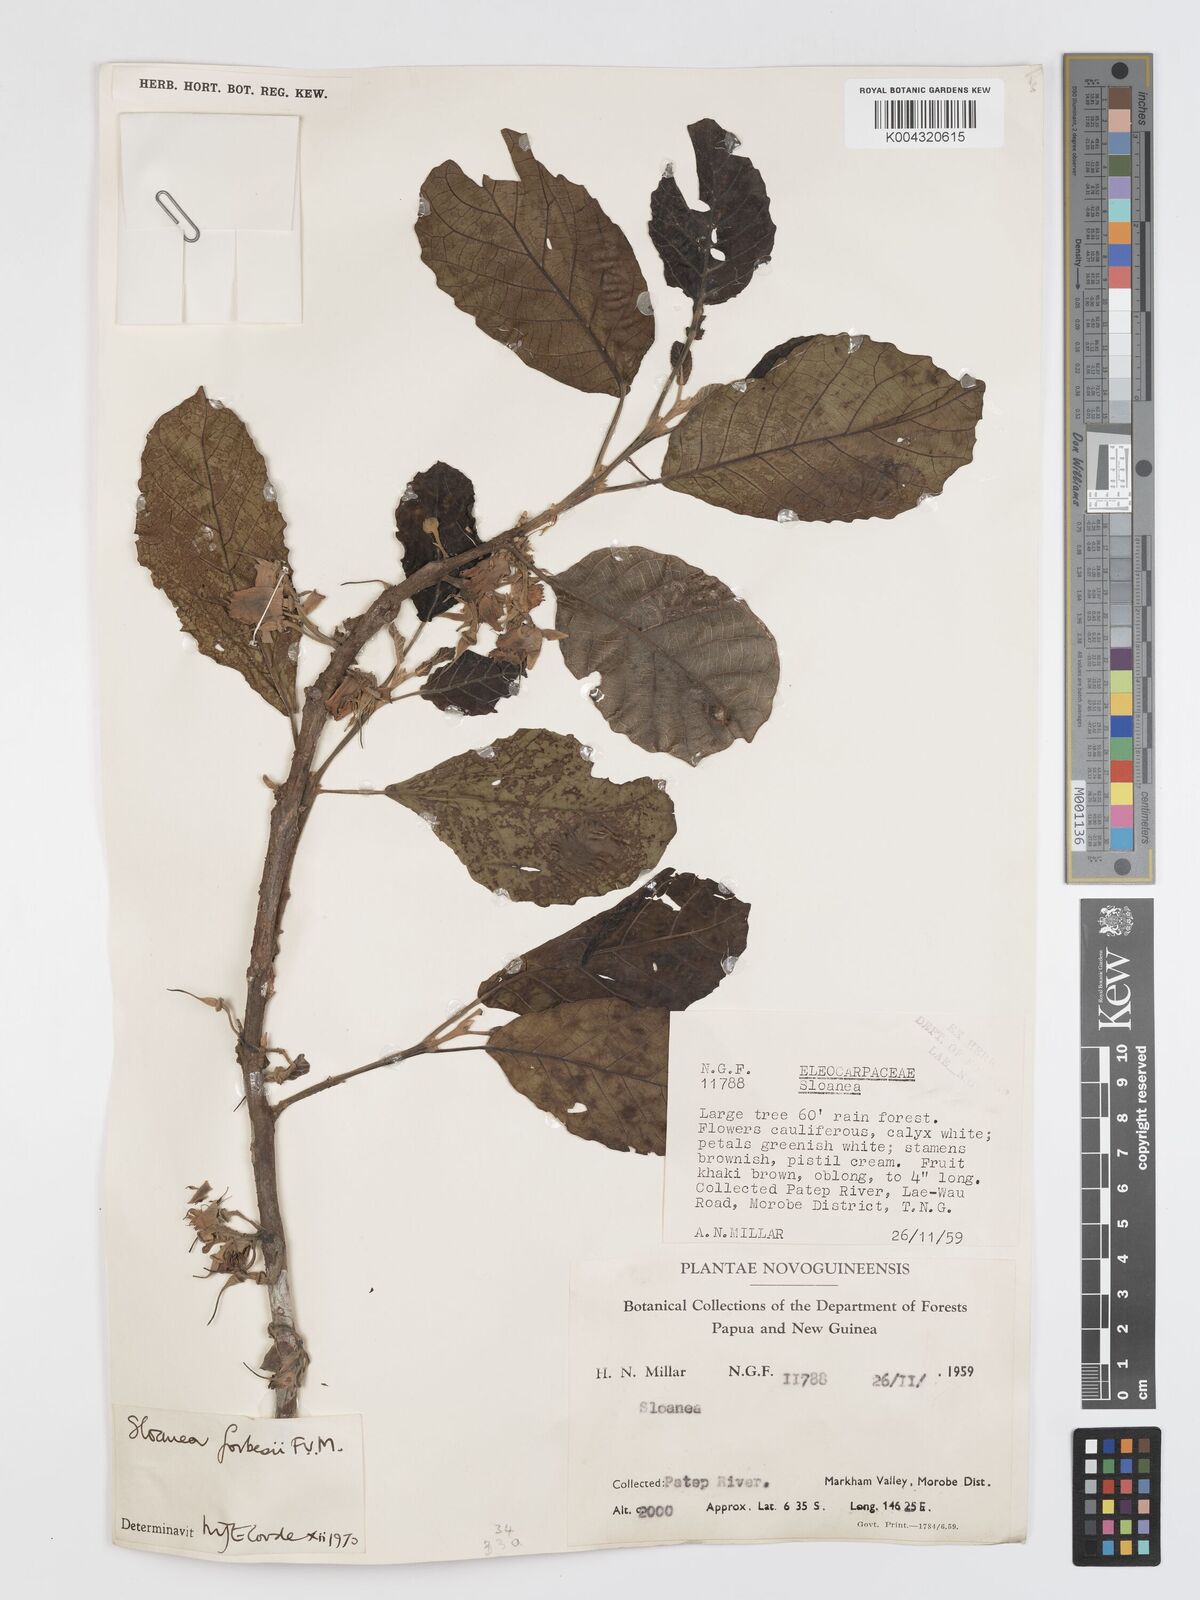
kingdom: Plantae
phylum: Tracheophyta
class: Magnoliopsida
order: Oxalidales
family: Elaeocarpaceae
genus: Sloanea
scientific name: Sloanea forbesii
